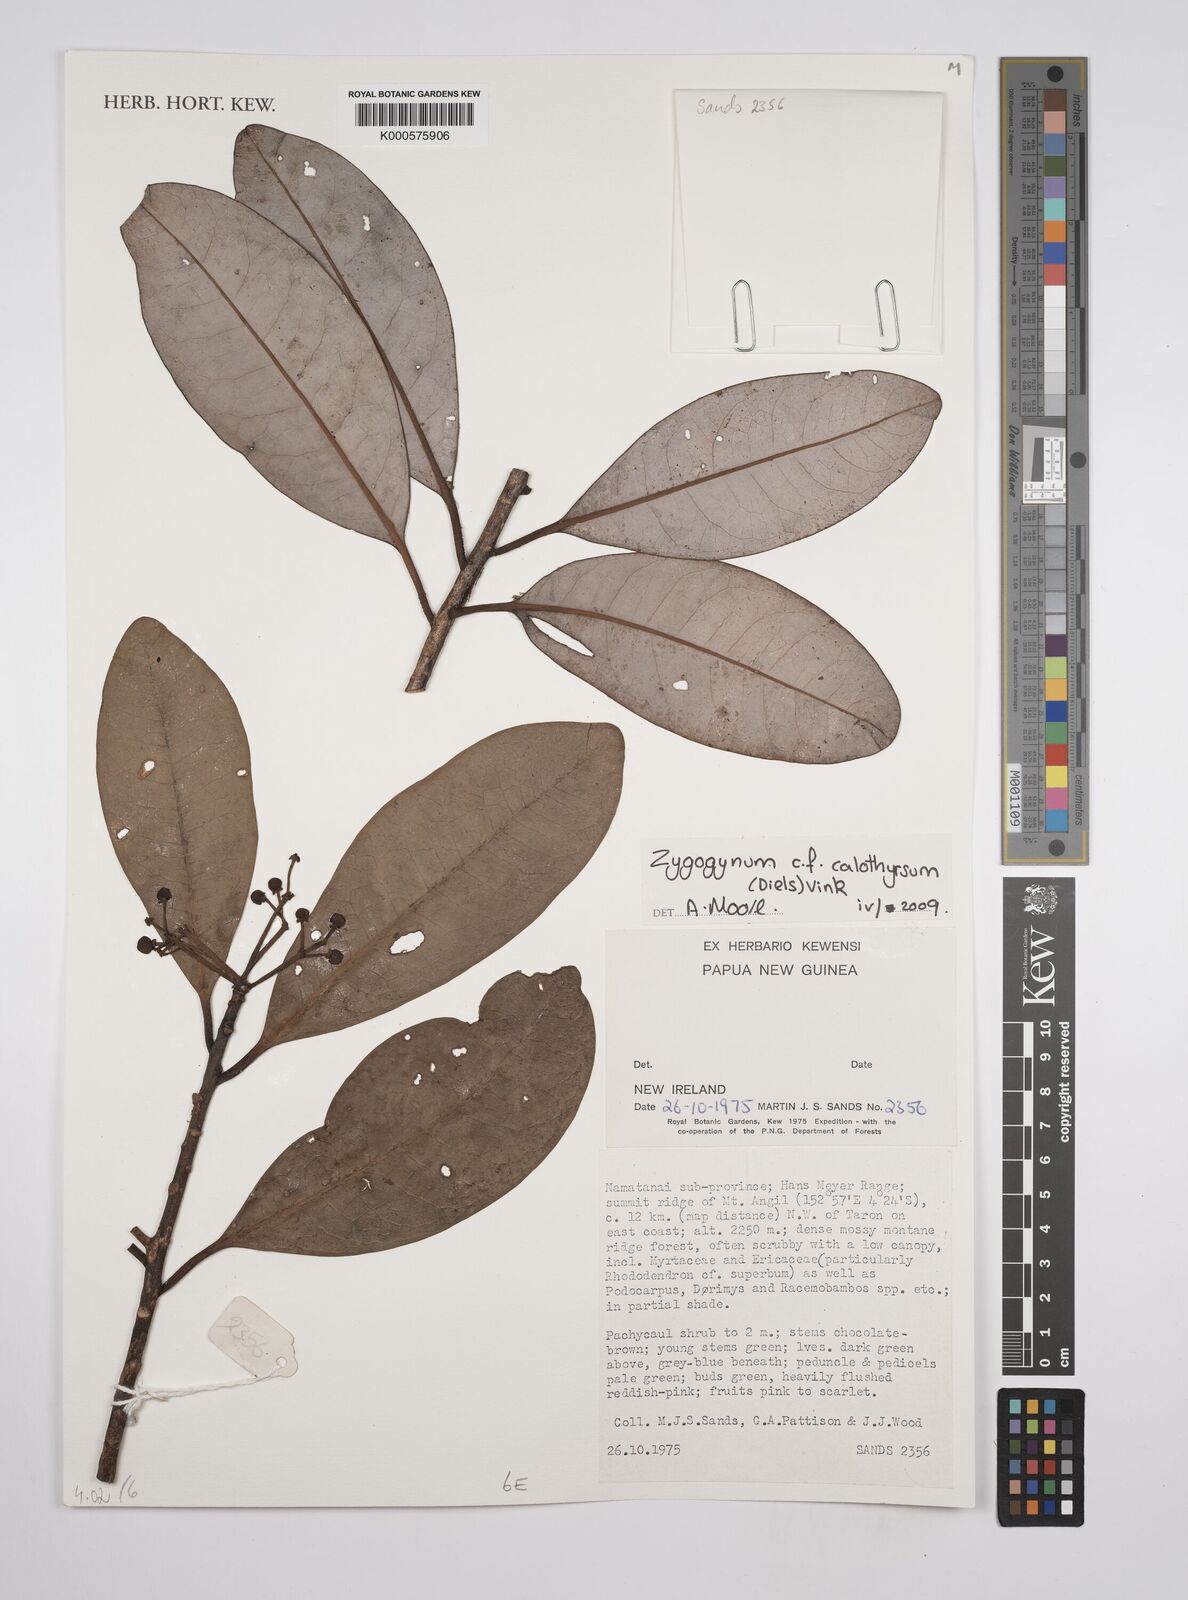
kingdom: Plantae
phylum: Tracheophyta
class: Magnoliopsida
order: Canellales
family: Winteraceae
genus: Zygogynum
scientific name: Zygogynum calothyrsum
